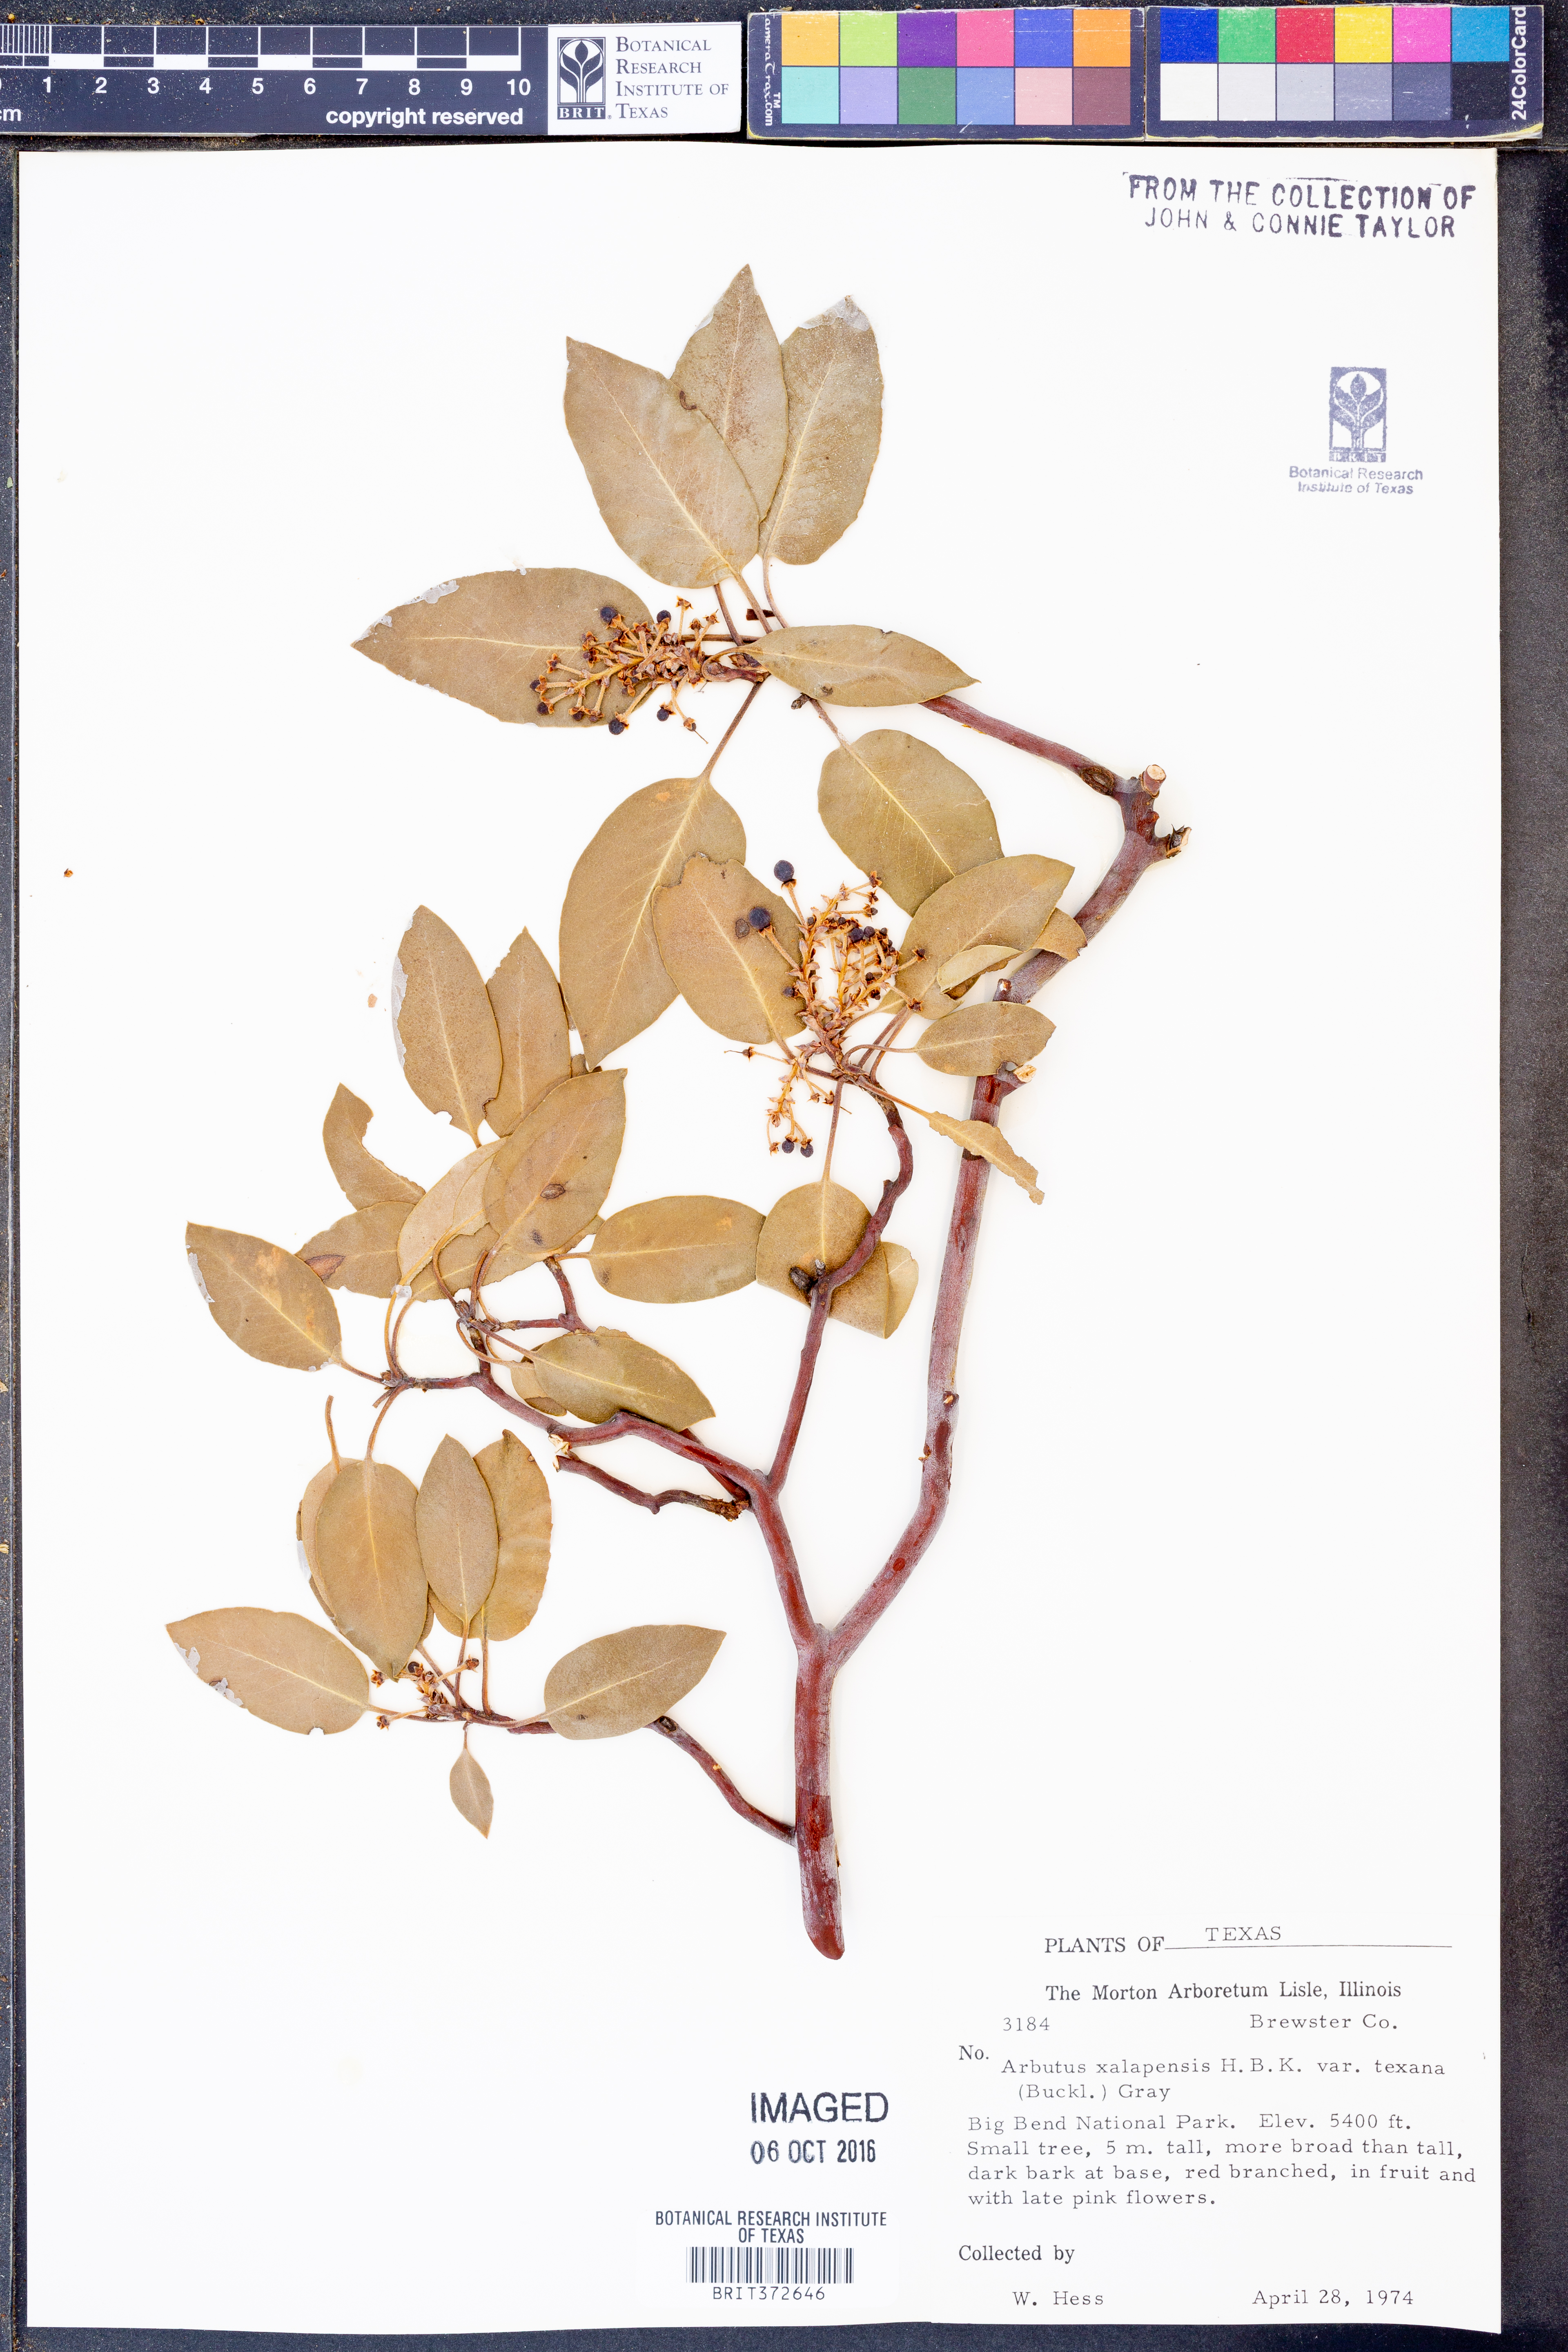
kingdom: Plantae
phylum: Tracheophyta
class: Magnoliopsida
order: Ericales
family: Ericaceae
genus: Arbutus
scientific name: Arbutus xalapensis
